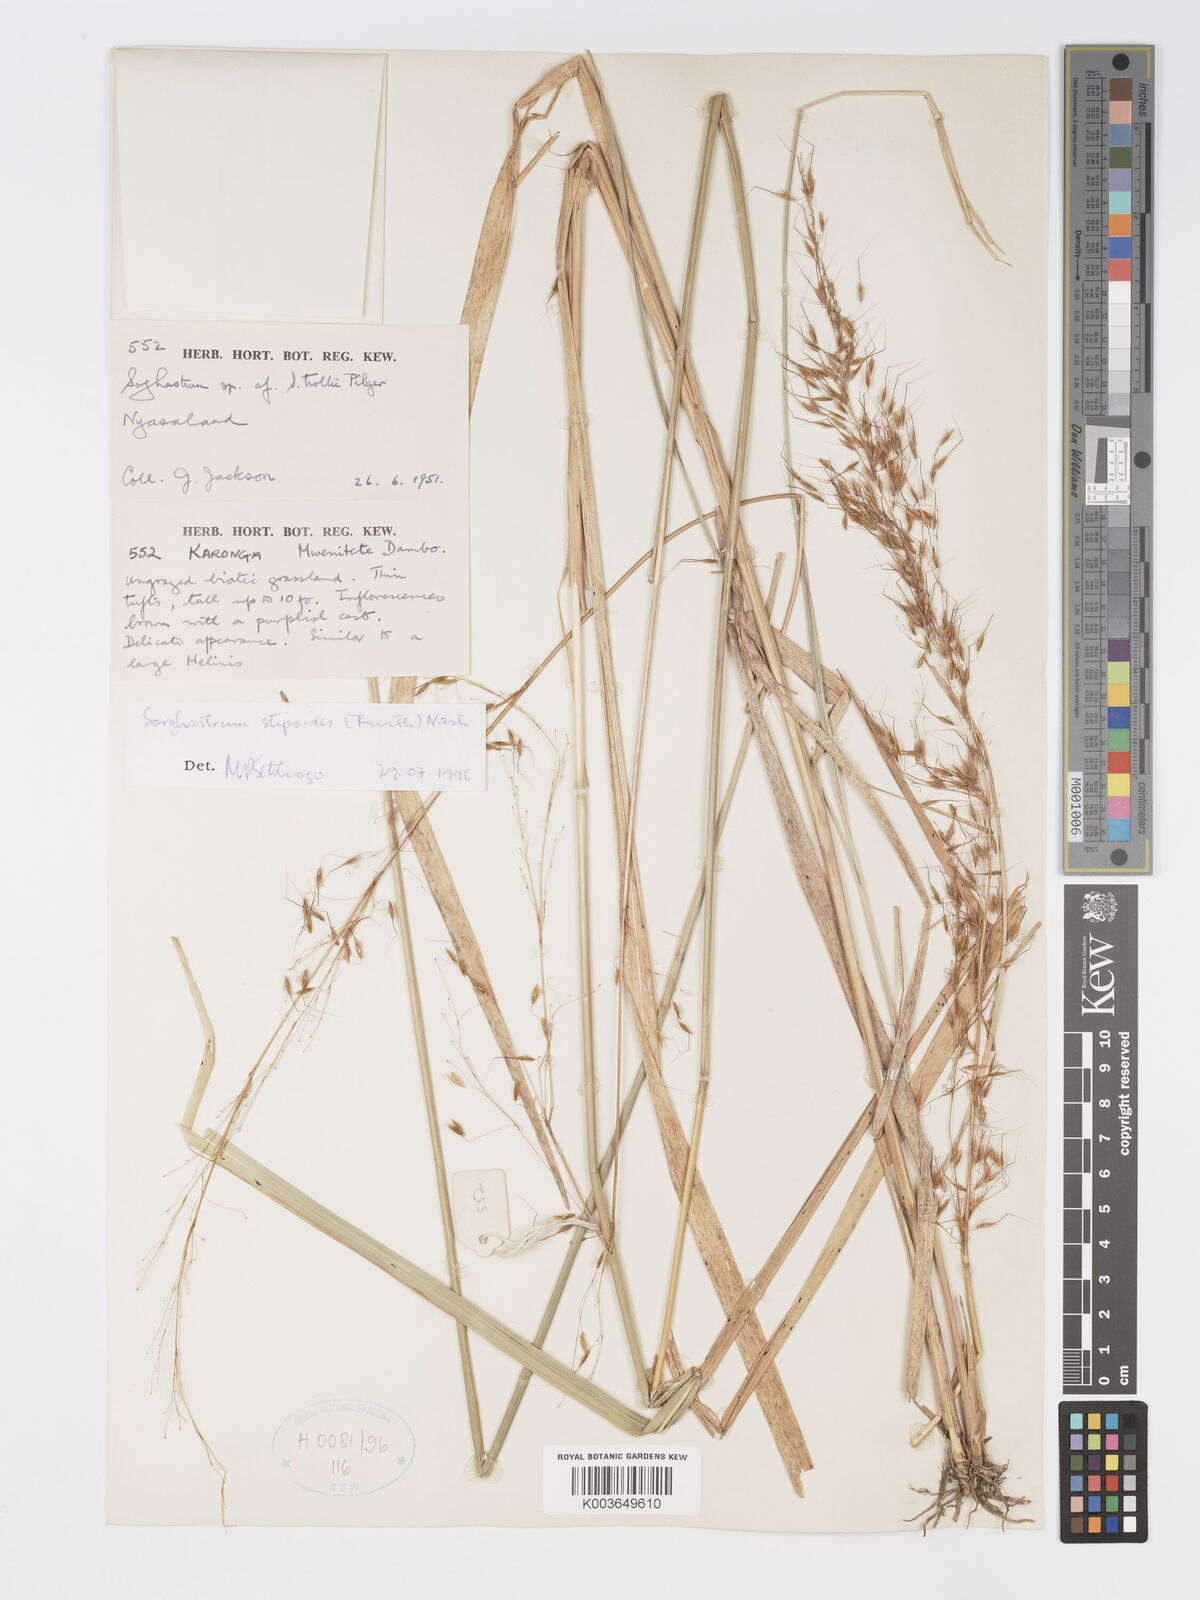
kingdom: Plantae
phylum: Tracheophyta
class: Liliopsida
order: Poales
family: Poaceae
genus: Sorghastrum
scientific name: Sorghastrum stipoides
